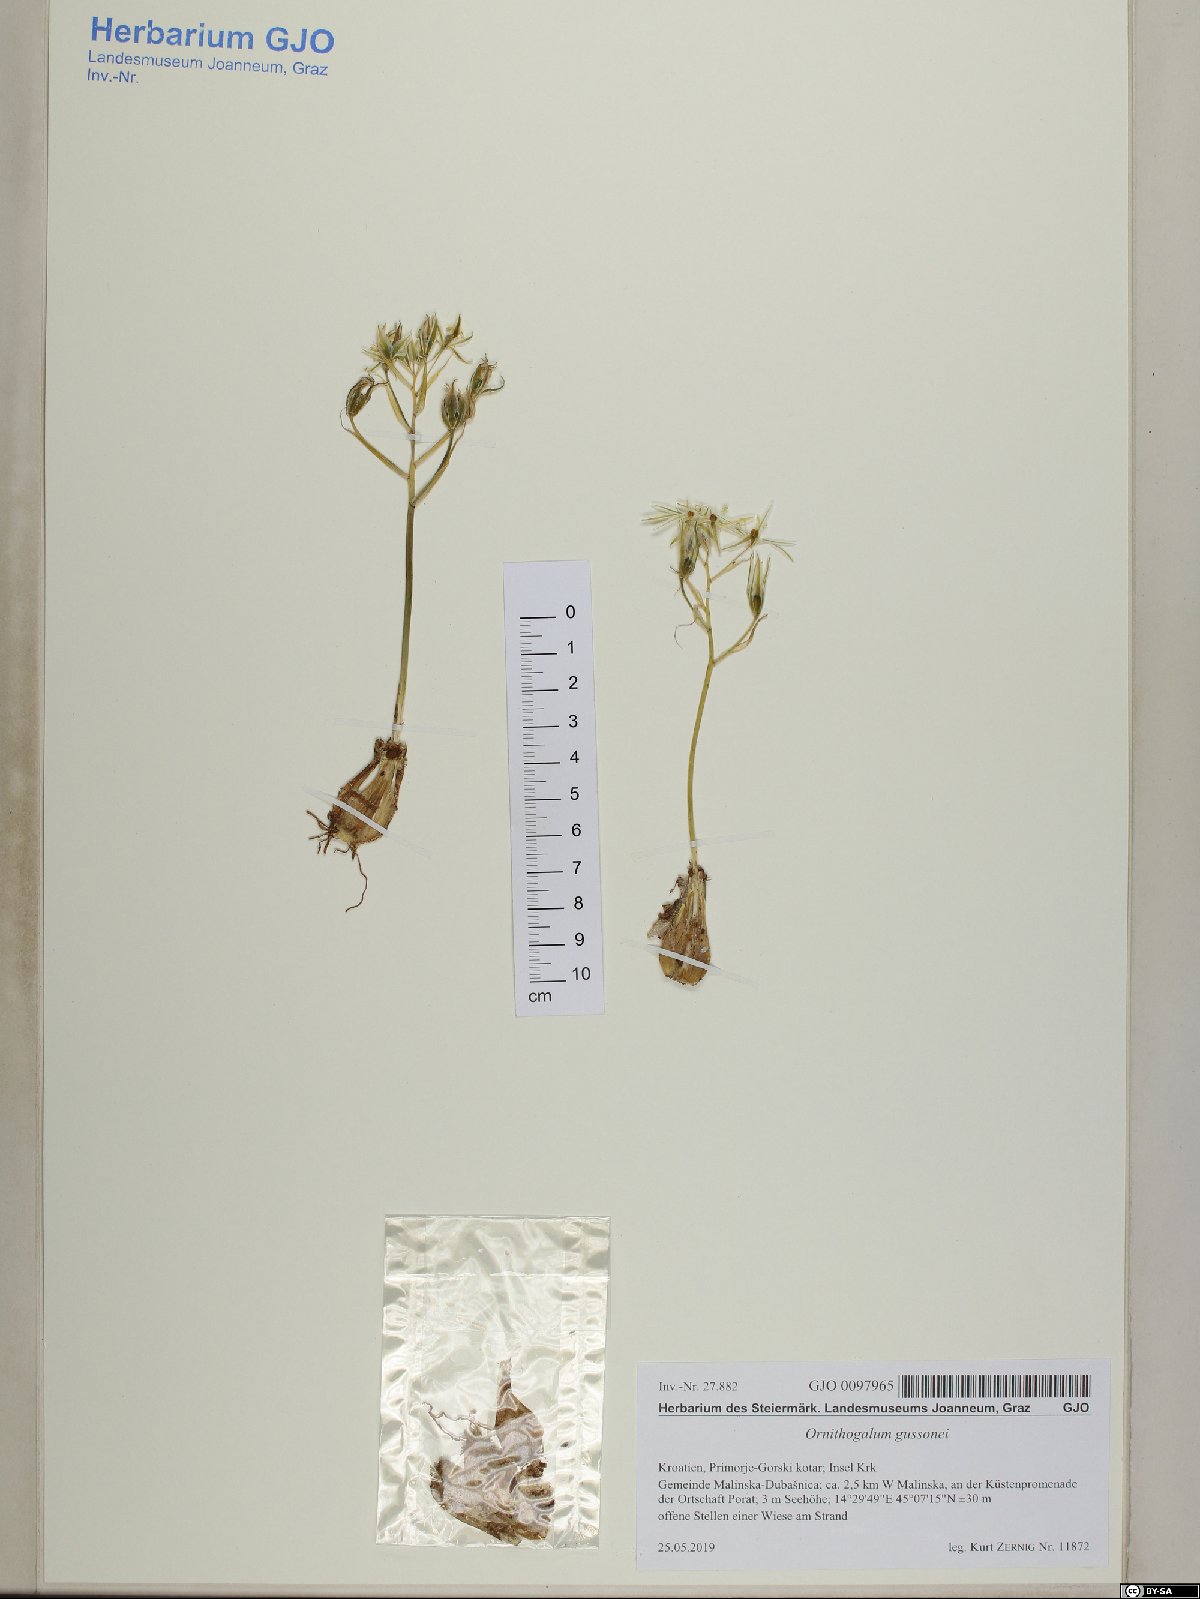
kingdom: Plantae
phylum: Tracheophyta
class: Liliopsida
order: Asparagales
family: Asparagaceae
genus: Ornithogalum
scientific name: Ornithogalum gussonei
